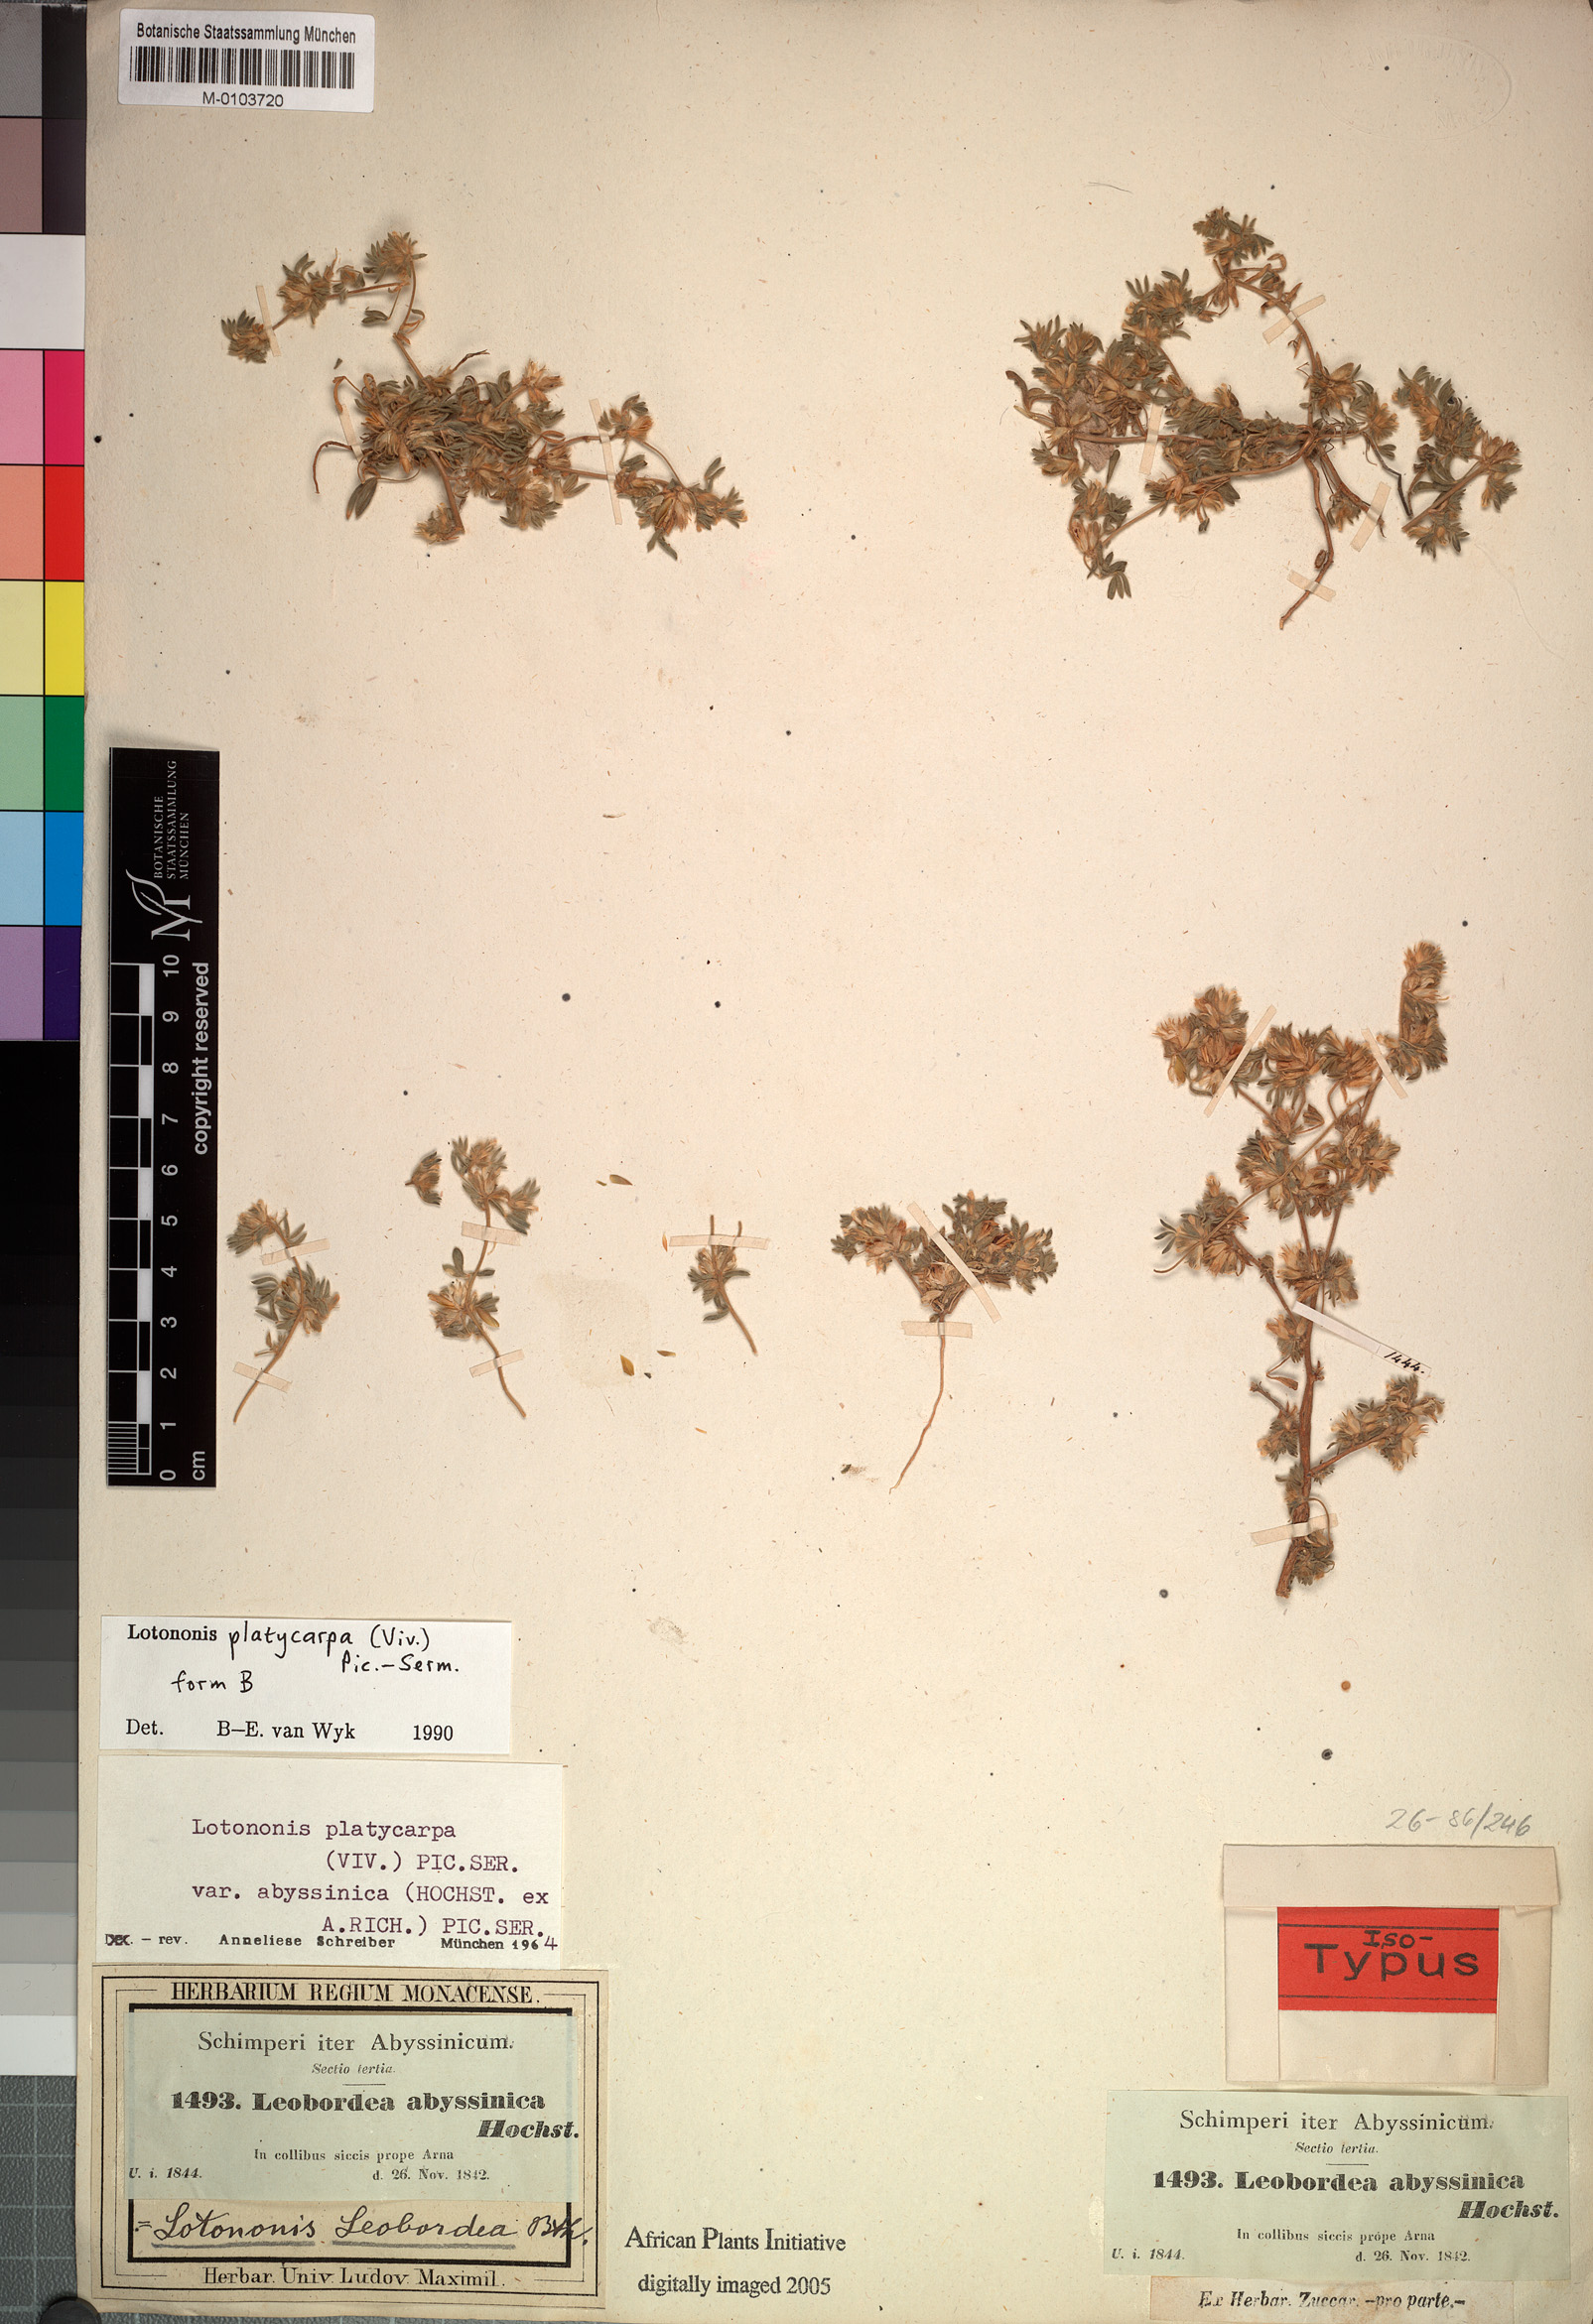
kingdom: Plantae
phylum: Tracheophyta
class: Magnoliopsida
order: Fabales
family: Fabaceae
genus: Leobordea
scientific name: Leobordea platycarpa
